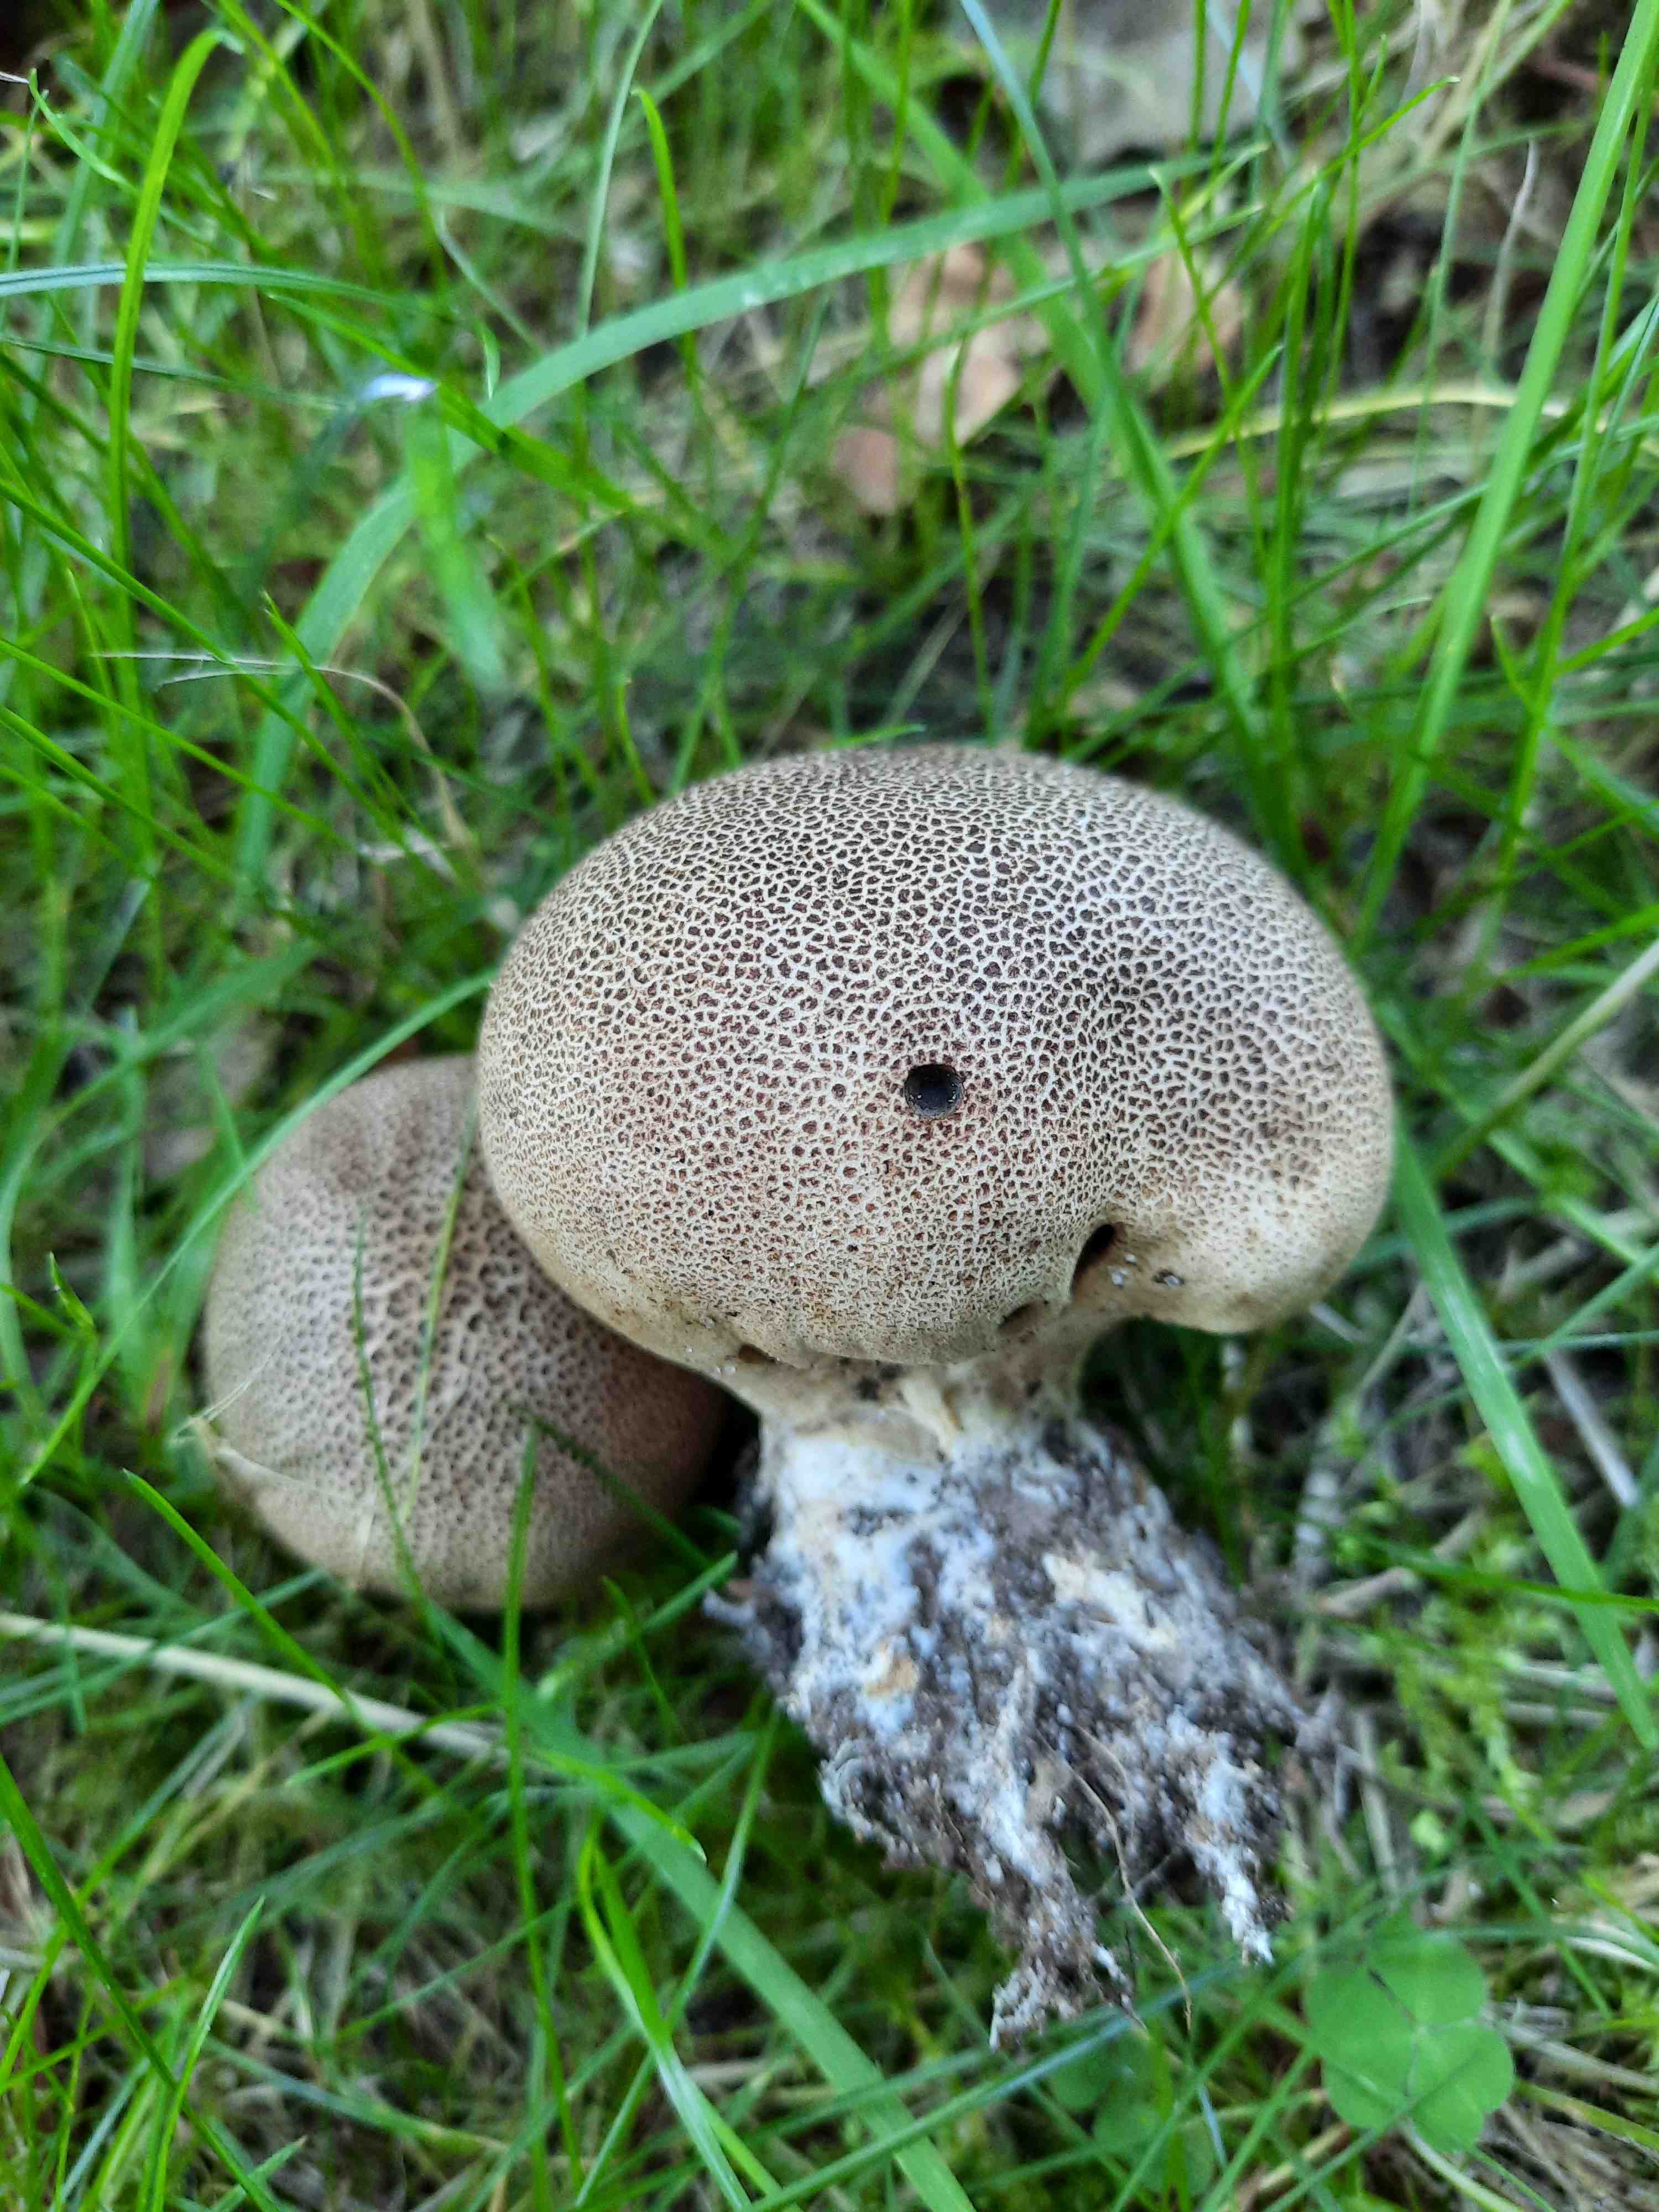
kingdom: Fungi
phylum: Basidiomycota
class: Agaricomycetes
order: Boletales
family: Sclerodermataceae
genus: Scleroderma
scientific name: Scleroderma areolatum
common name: plettet bruskbold
